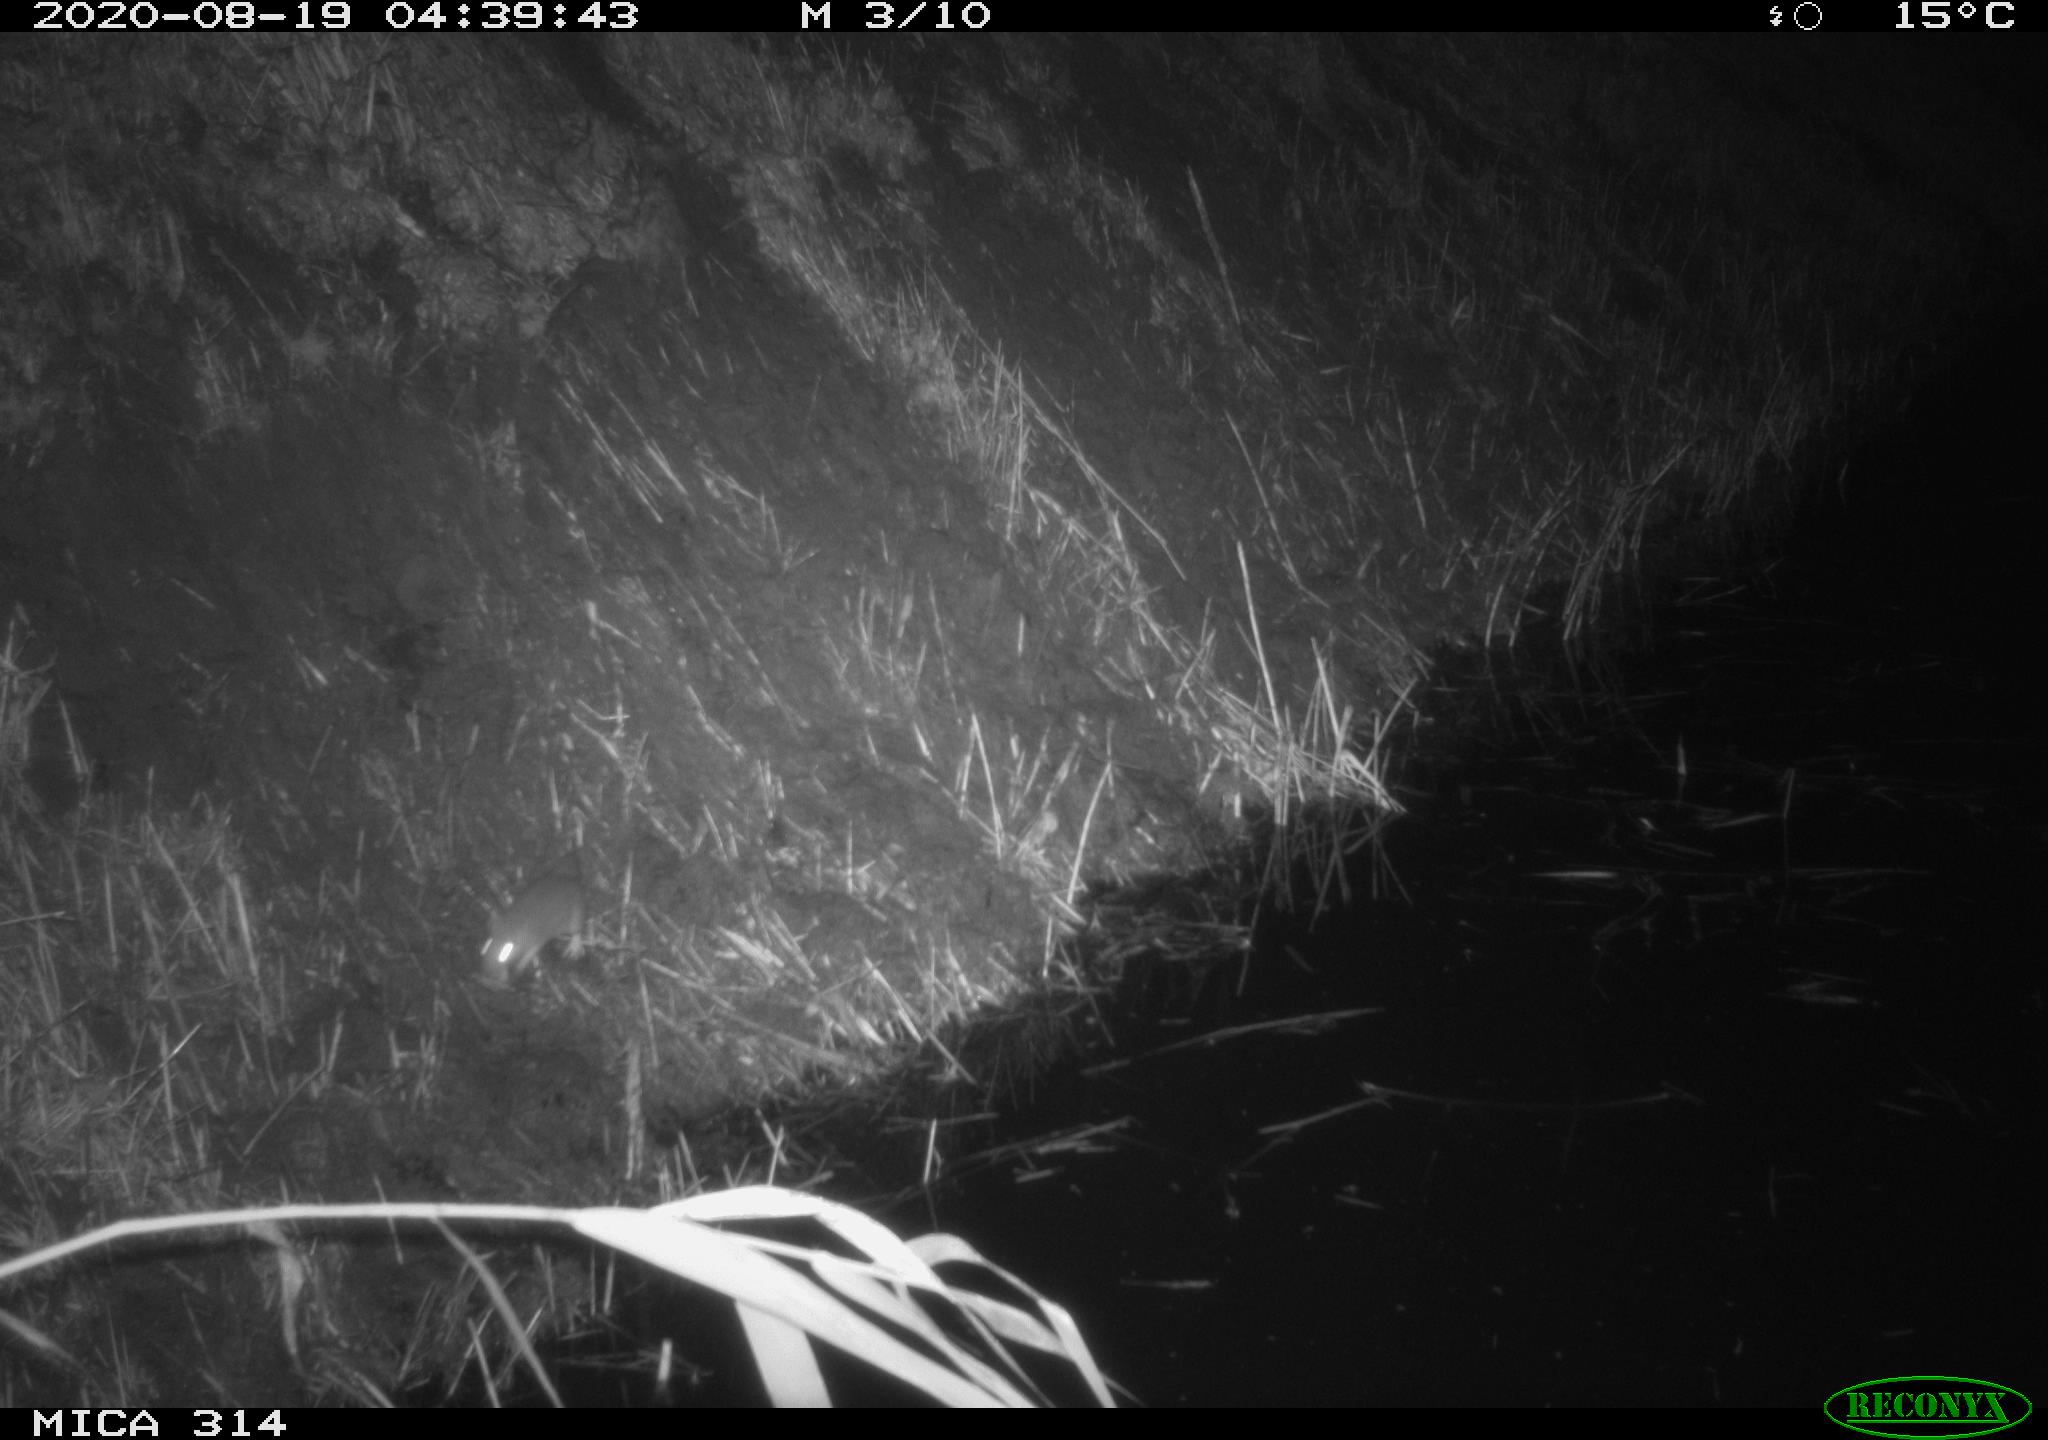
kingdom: Animalia
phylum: Chordata
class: Mammalia
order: Rodentia
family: Muridae
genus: Rattus
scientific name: Rattus norvegicus
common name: Brown rat
